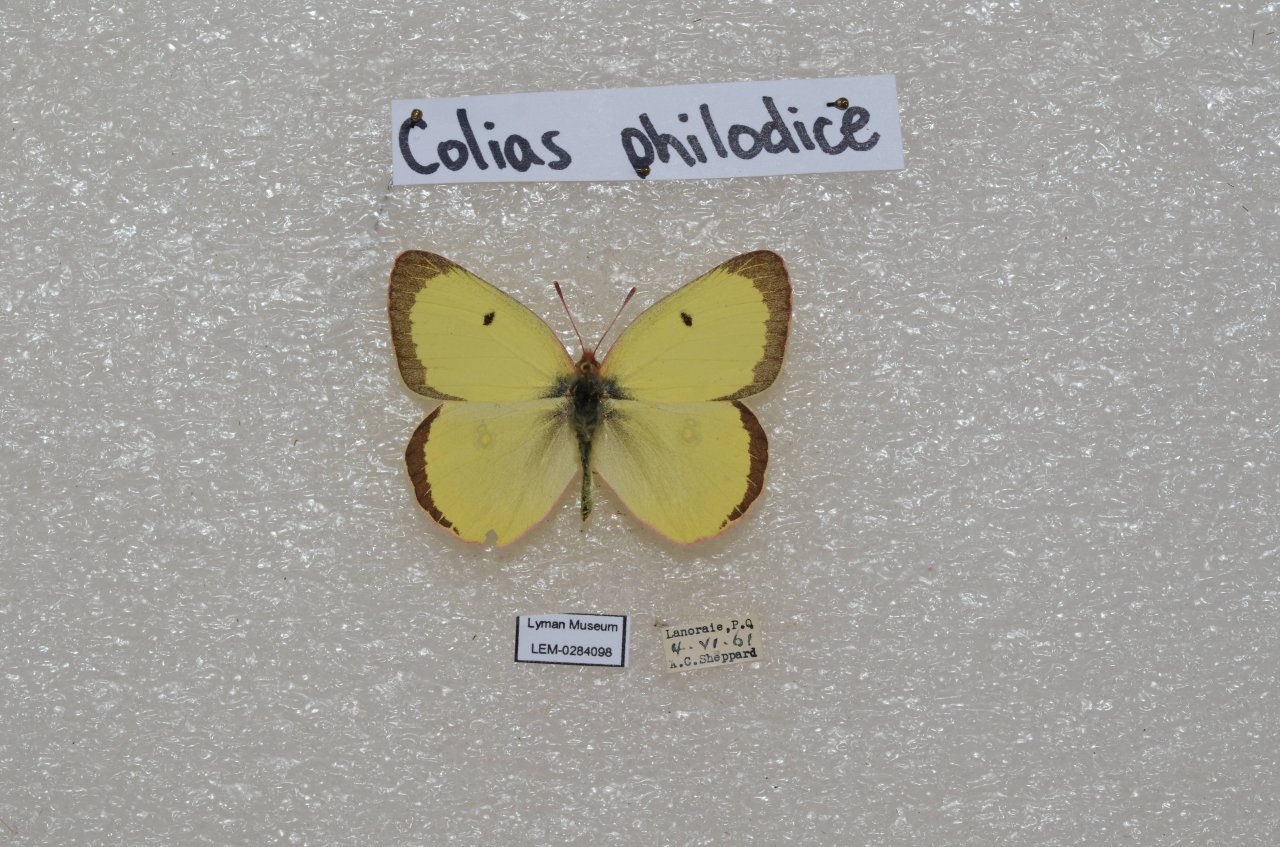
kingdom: Animalia
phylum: Arthropoda
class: Insecta
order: Lepidoptera
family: Pieridae
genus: Colias
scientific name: Colias philodice
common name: Clouded Sulphur
